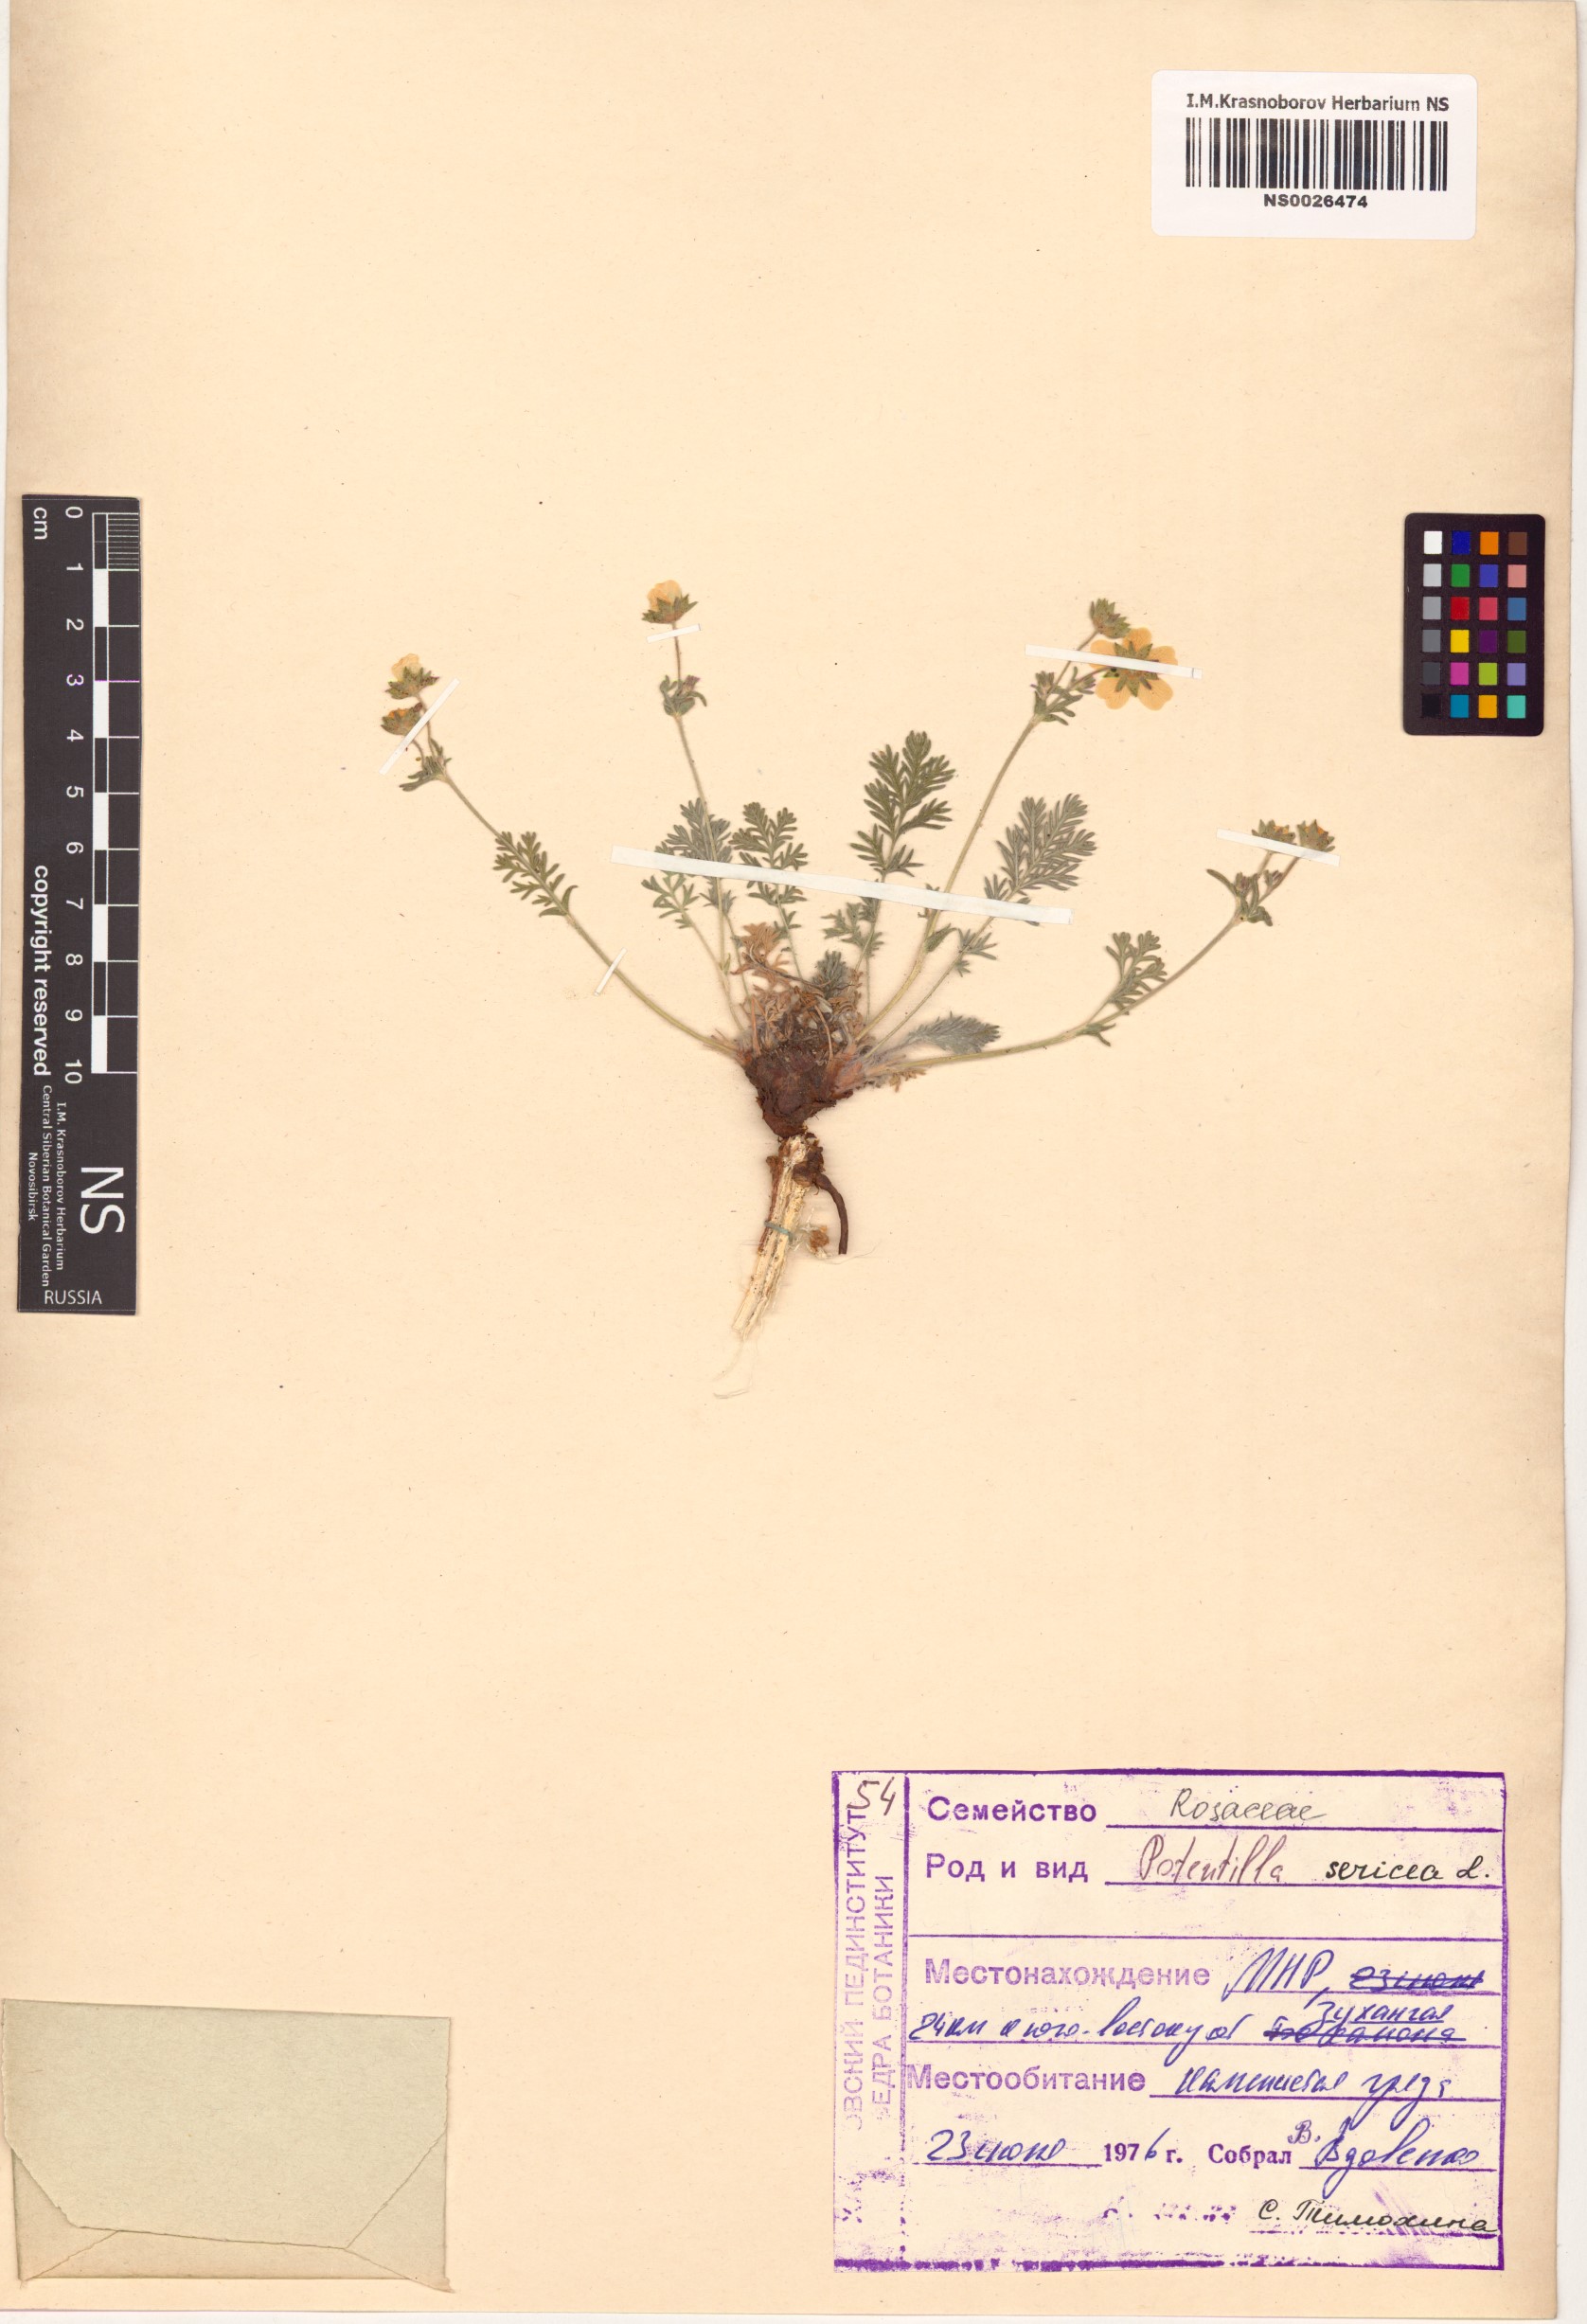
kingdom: Plantae
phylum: Tracheophyta
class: Magnoliopsida
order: Rosales
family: Rosaceae
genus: Potentilla
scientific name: Potentilla sericea
